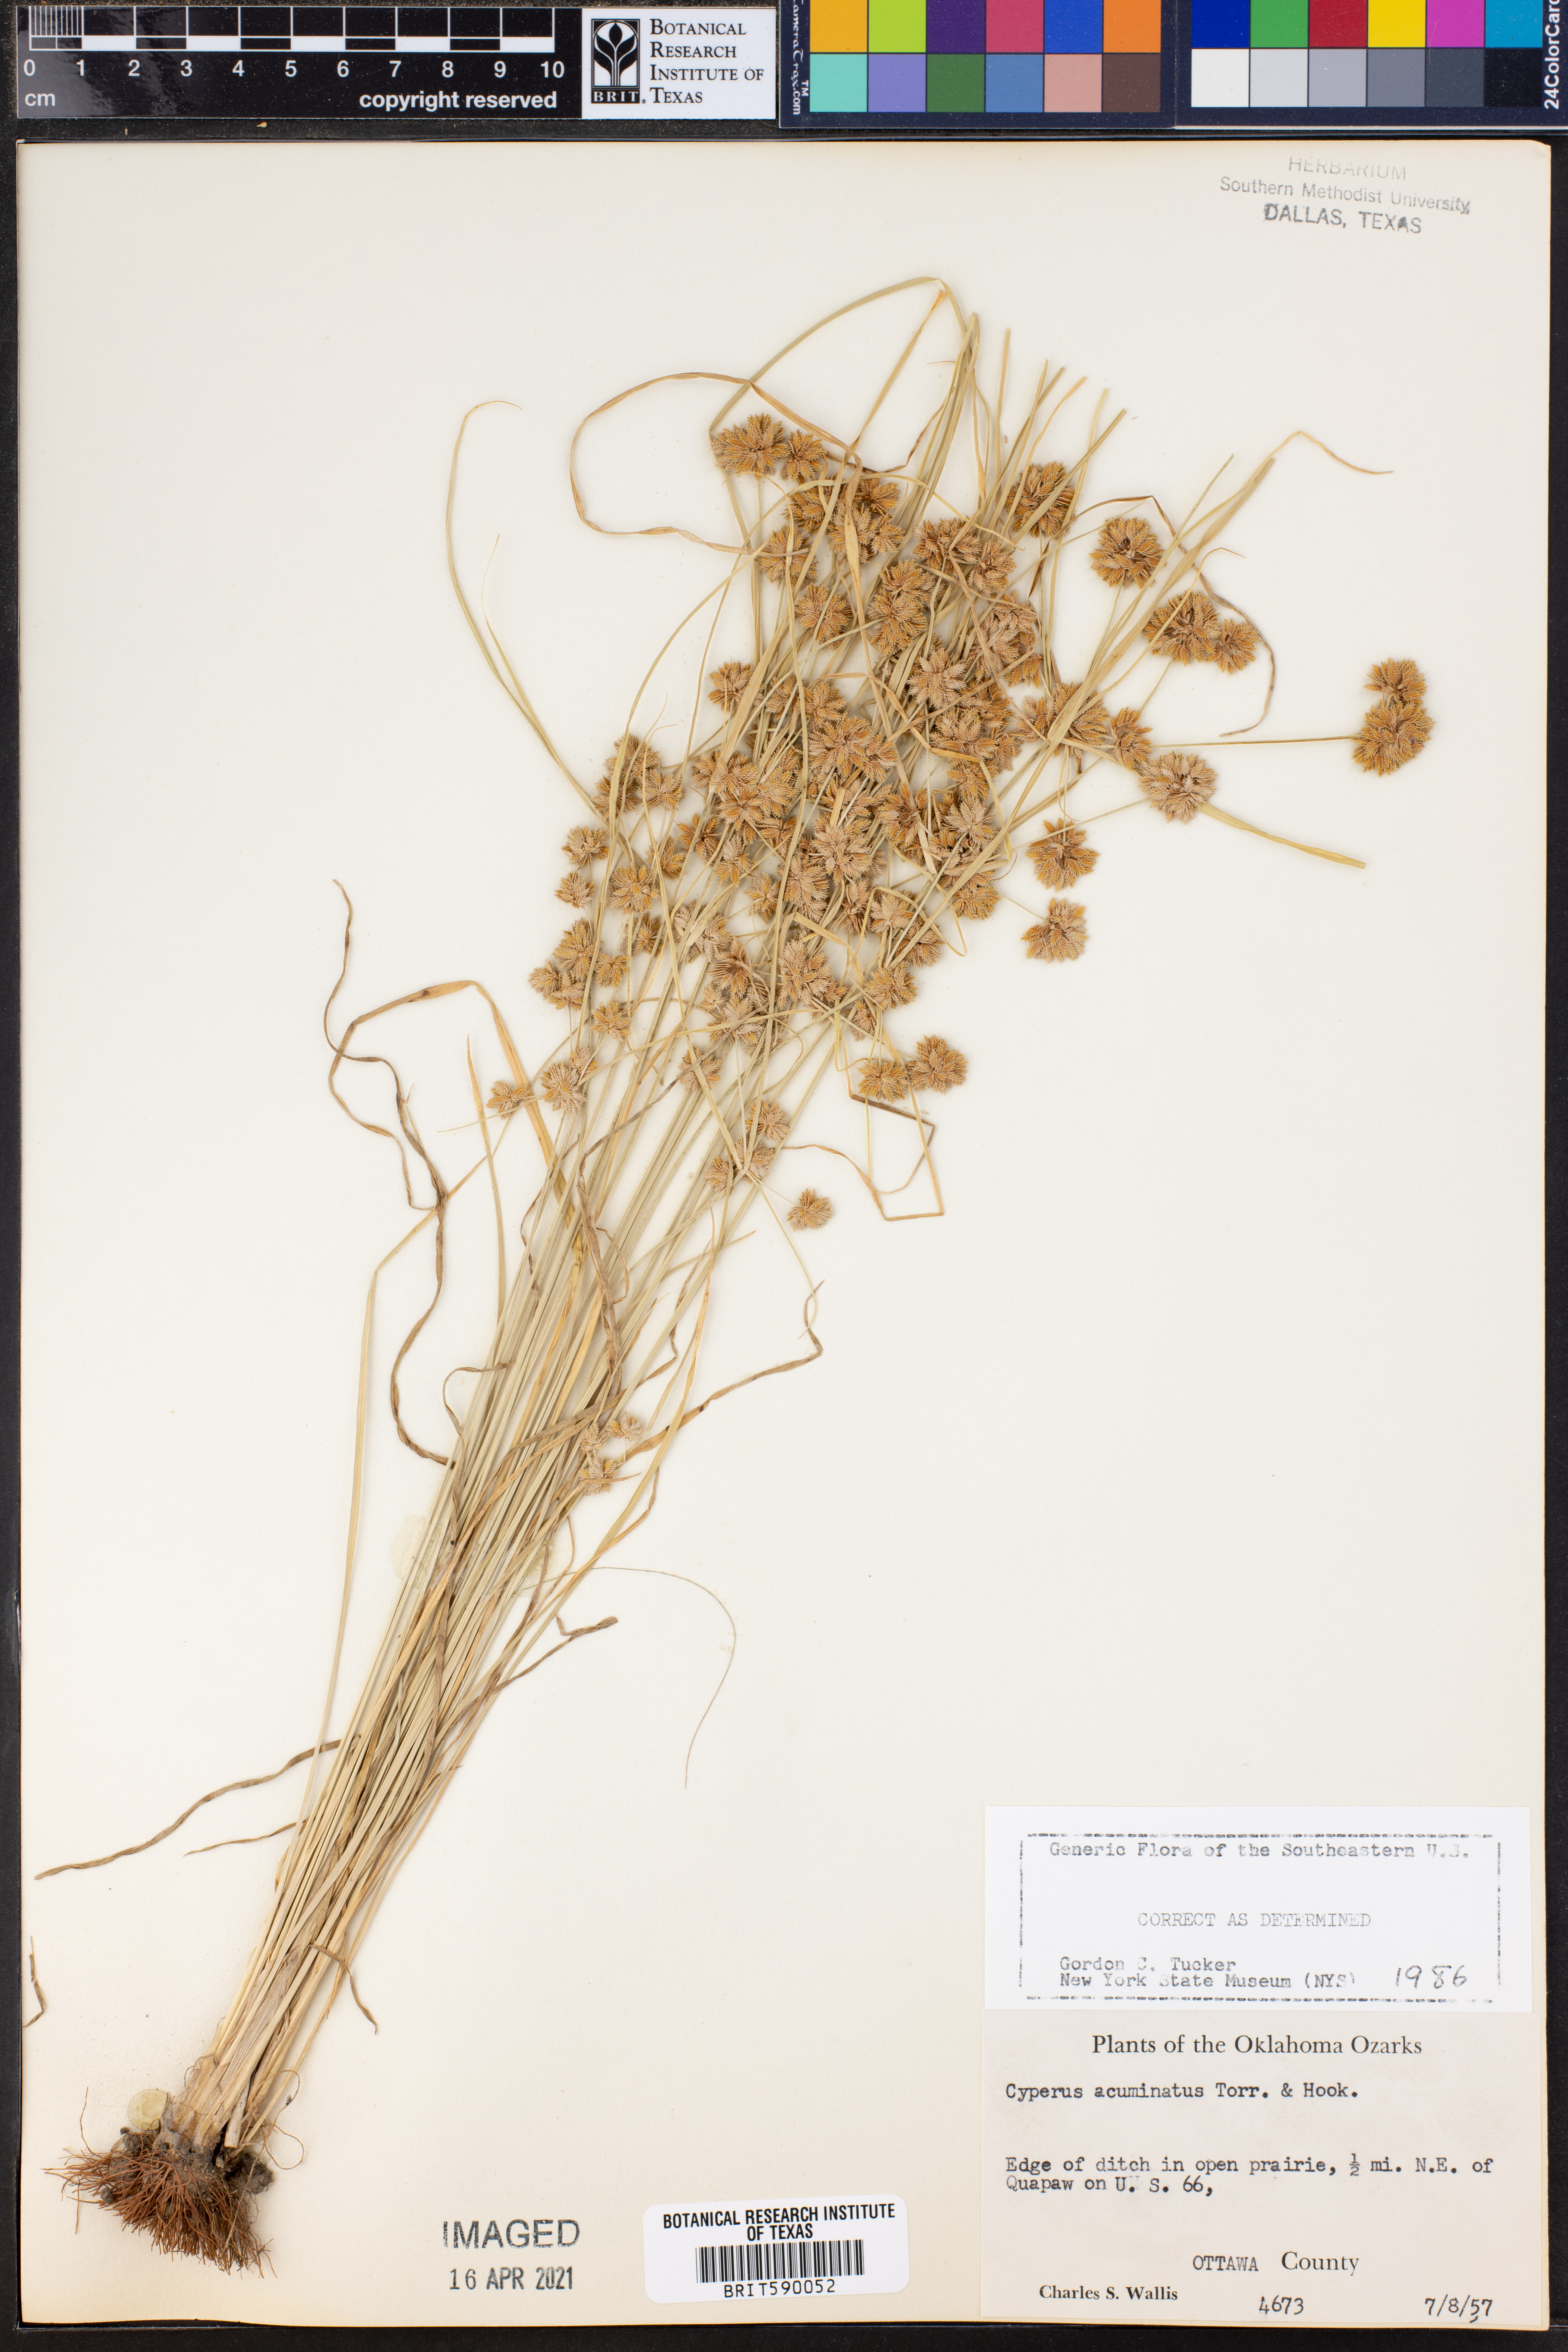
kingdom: Plantae
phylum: Tracheophyta
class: Liliopsida
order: Poales
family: Cyperaceae
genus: Cyperus
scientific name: Cyperus acuminatus
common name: Short-pointed cyperus
